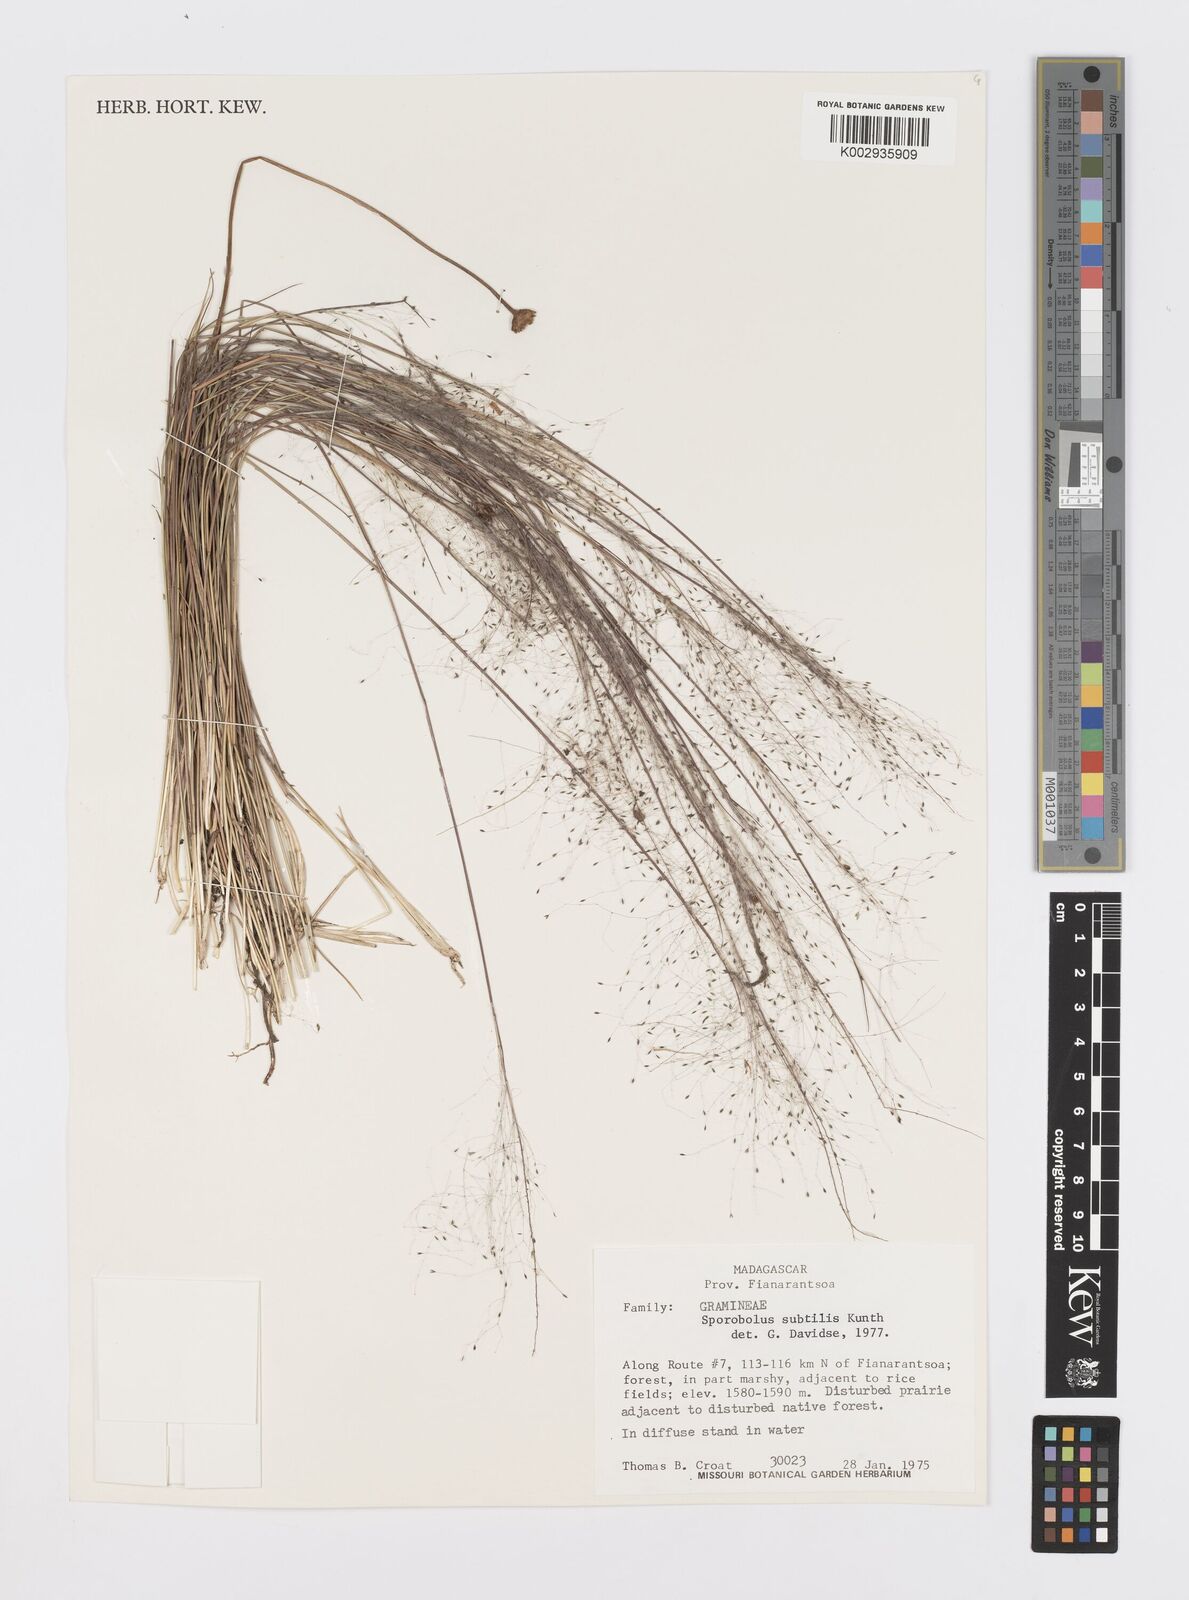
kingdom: Plantae
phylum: Tracheophyta
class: Liliopsida
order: Poales
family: Poaceae
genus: Sporobolus
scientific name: Sporobolus subtilis
